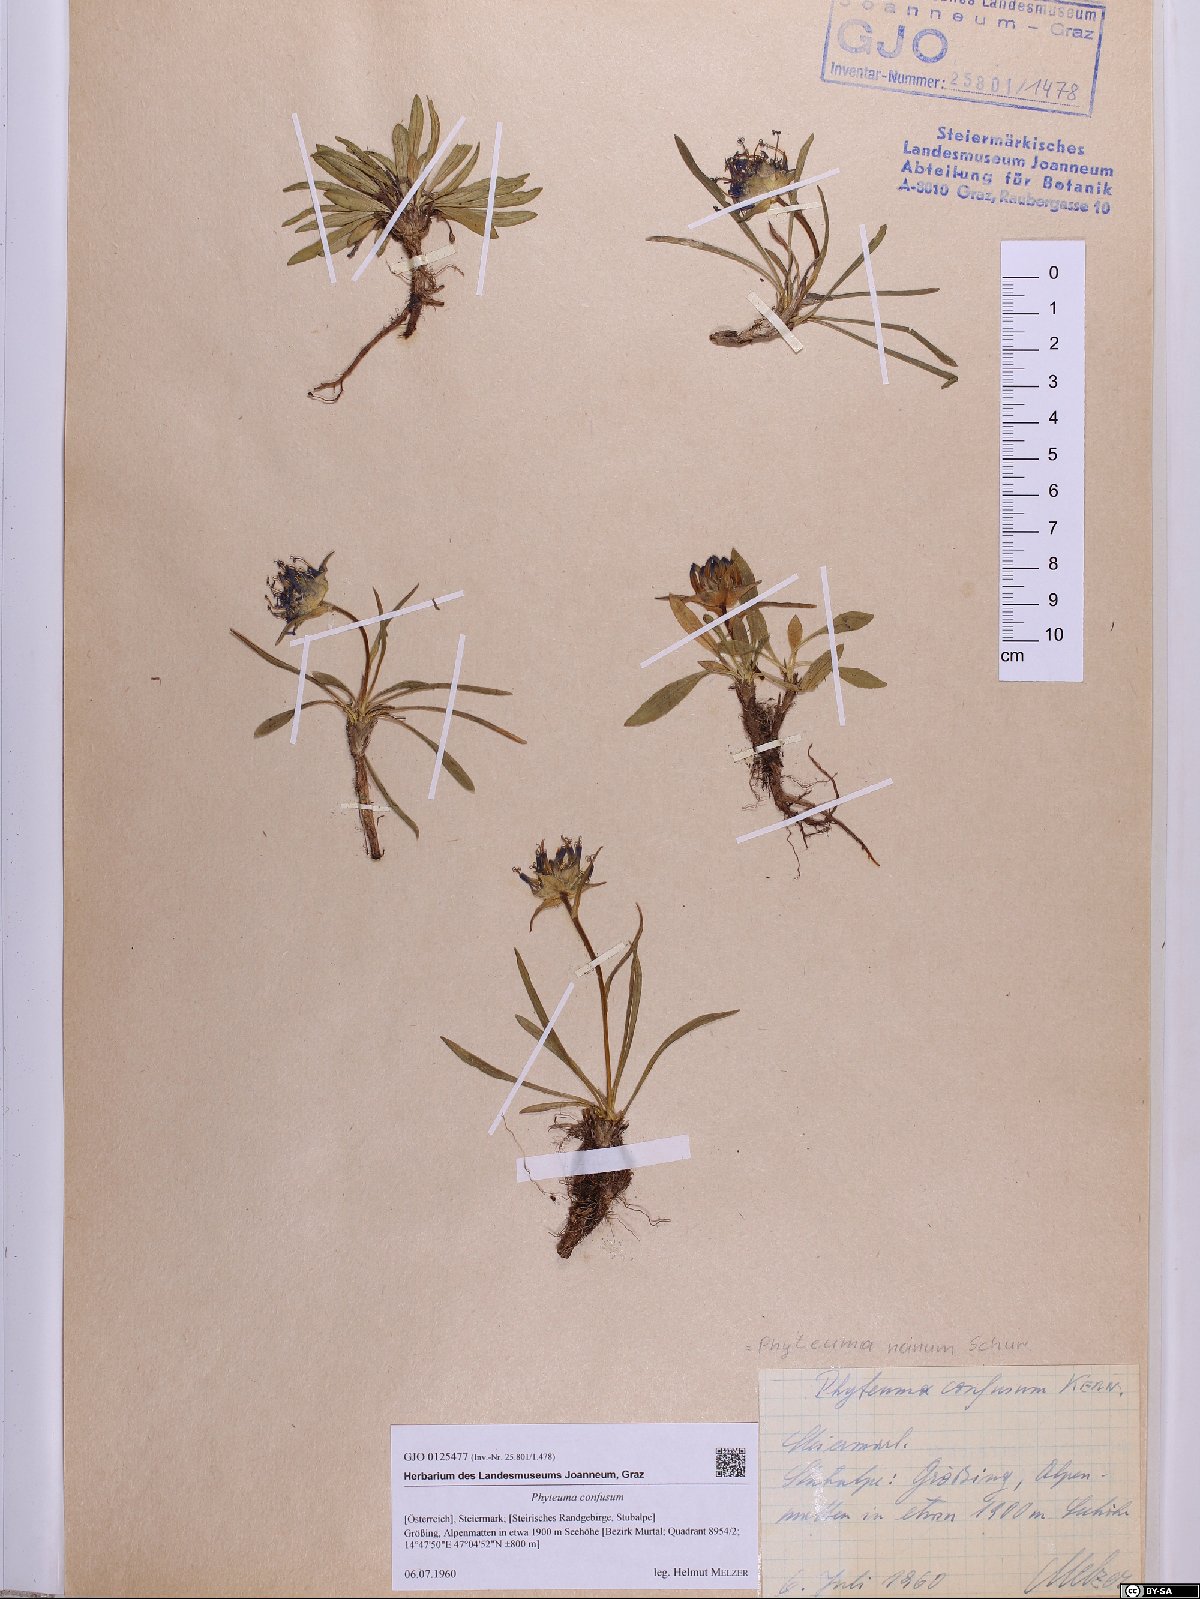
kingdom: Plantae
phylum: Tracheophyta
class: Magnoliopsida
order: Asterales
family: Campanulaceae
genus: Phyteuma
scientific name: Phyteuma confusum
